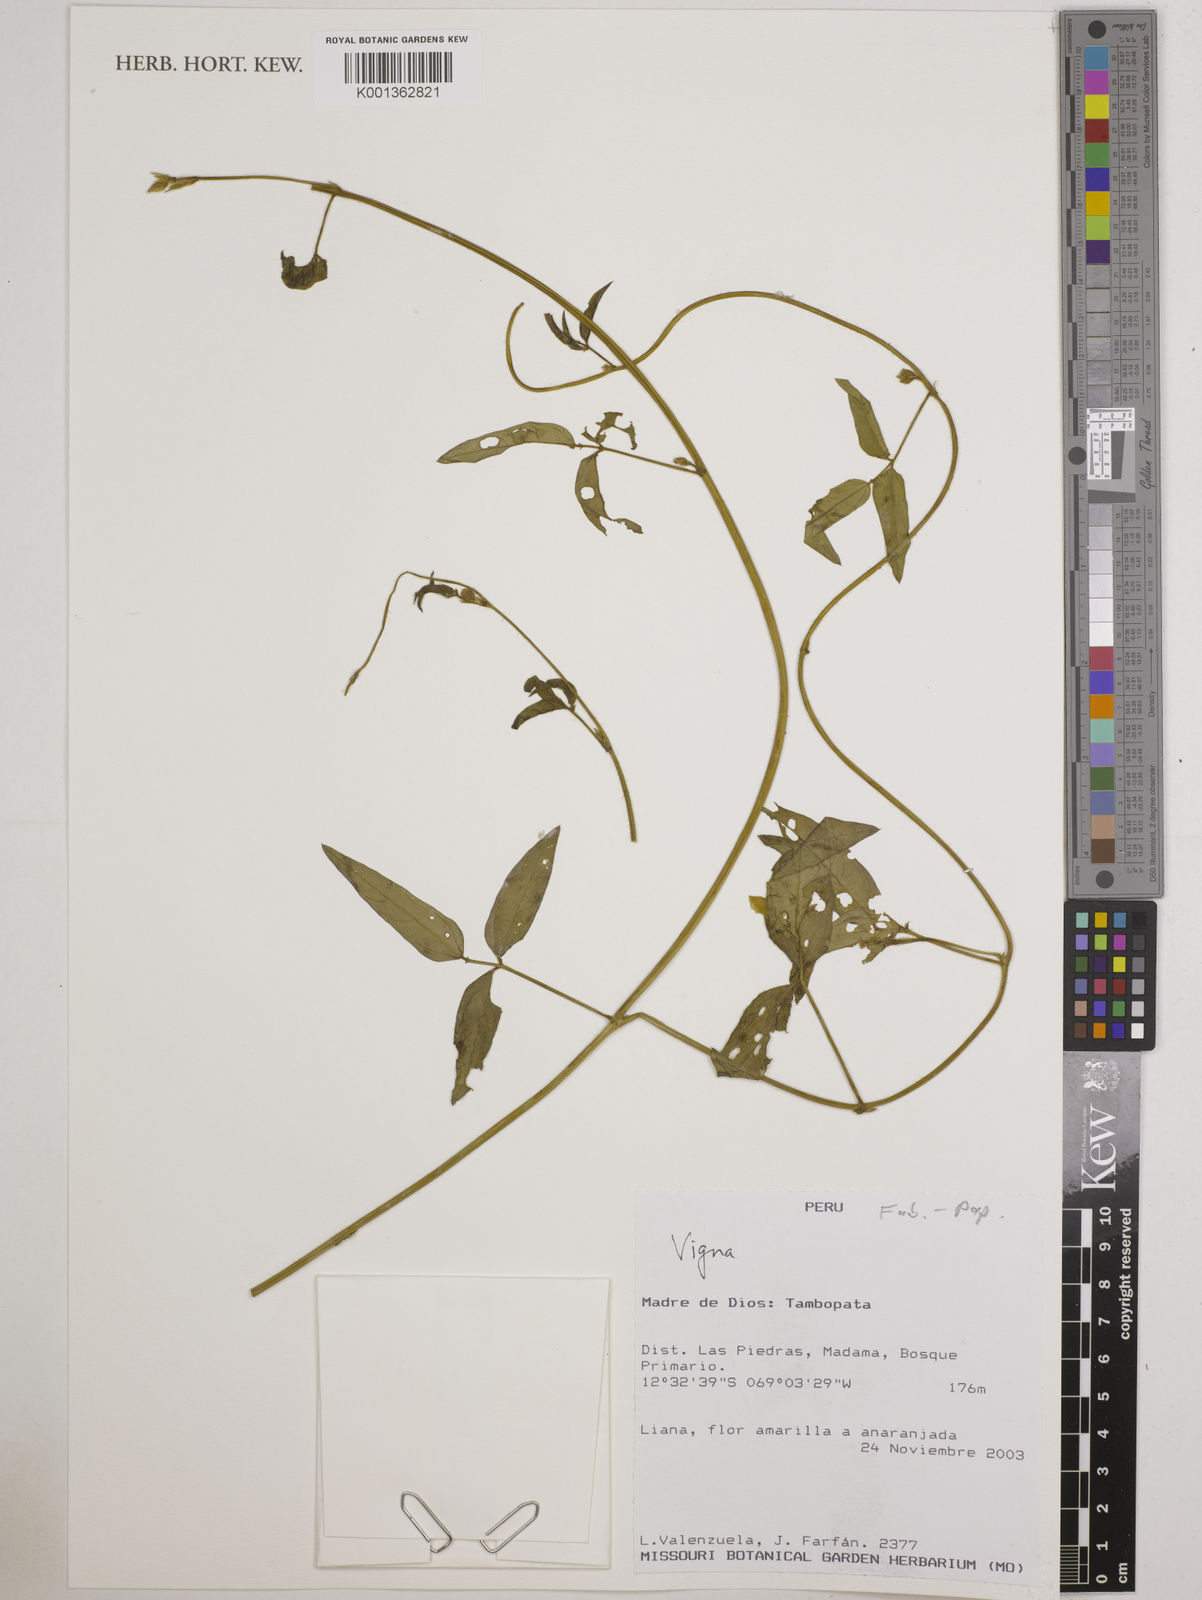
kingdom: Plantae
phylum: Tracheophyta
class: Magnoliopsida
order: Fabales
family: Fabaceae
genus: Vigna
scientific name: Vigna
